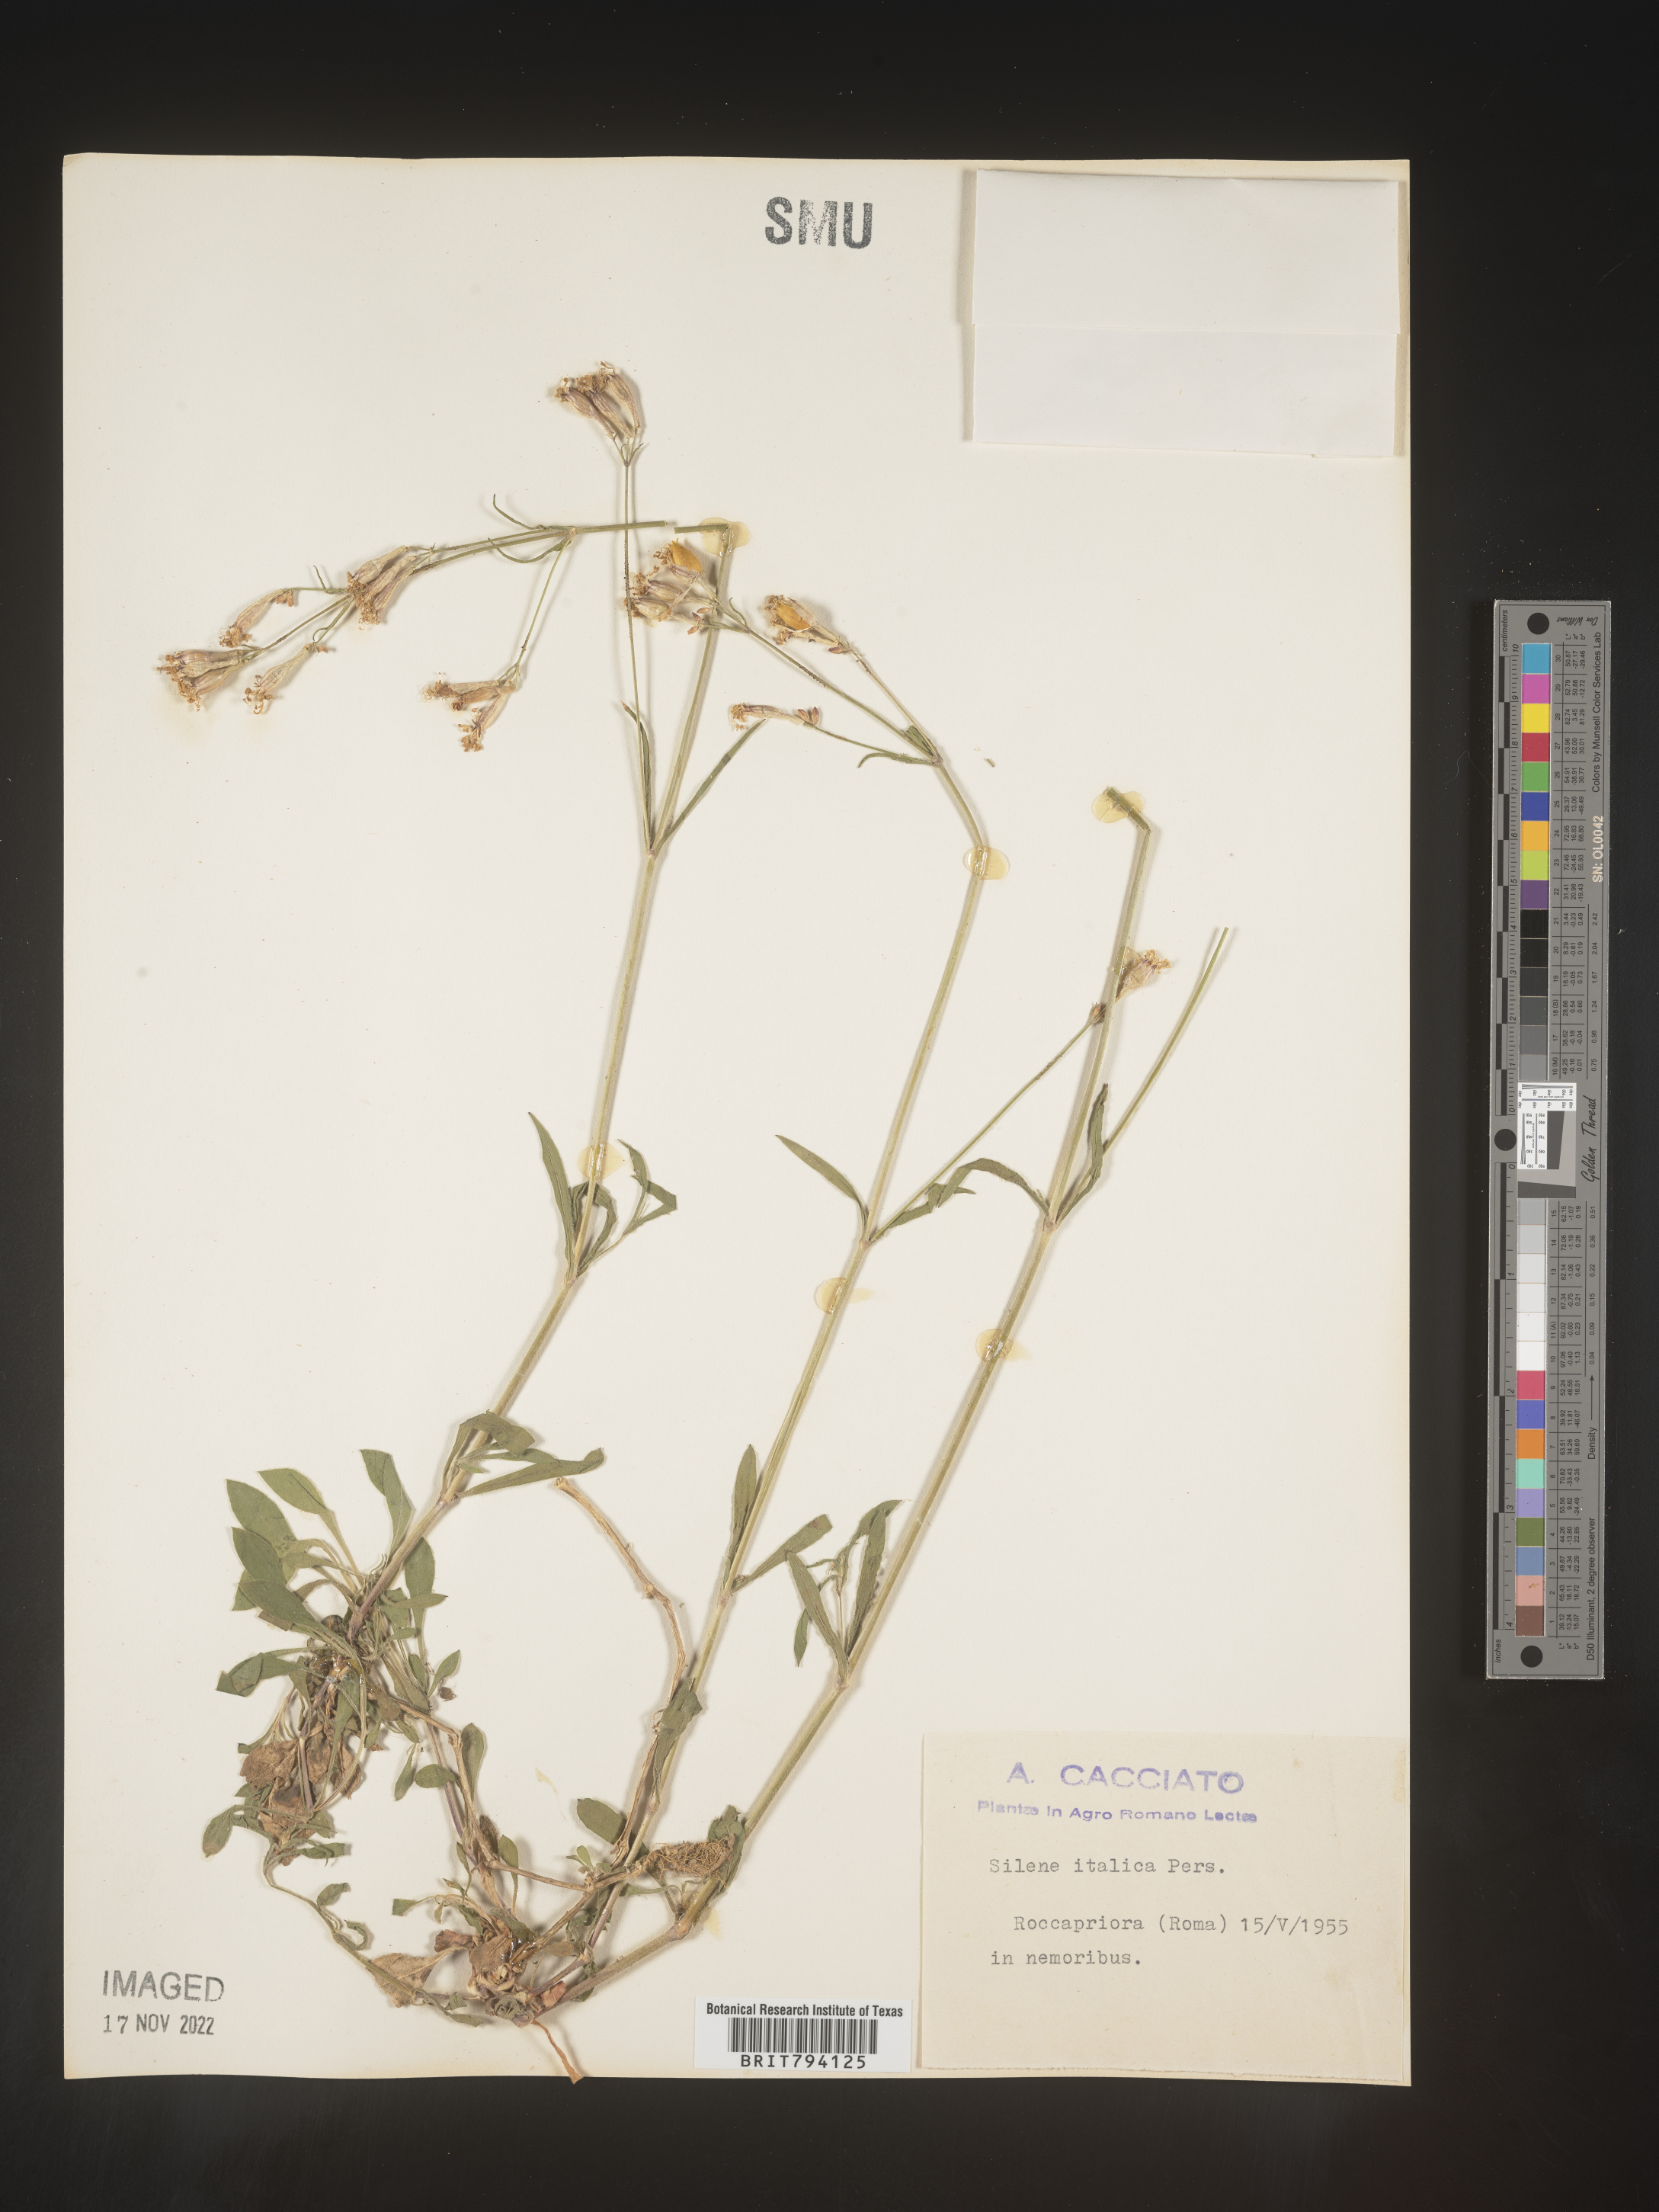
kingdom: Plantae
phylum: Tracheophyta
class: Magnoliopsida
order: Caryophyllales
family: Caryophyllaceae
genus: Silene
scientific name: Silene italica
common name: Italian catchfly
